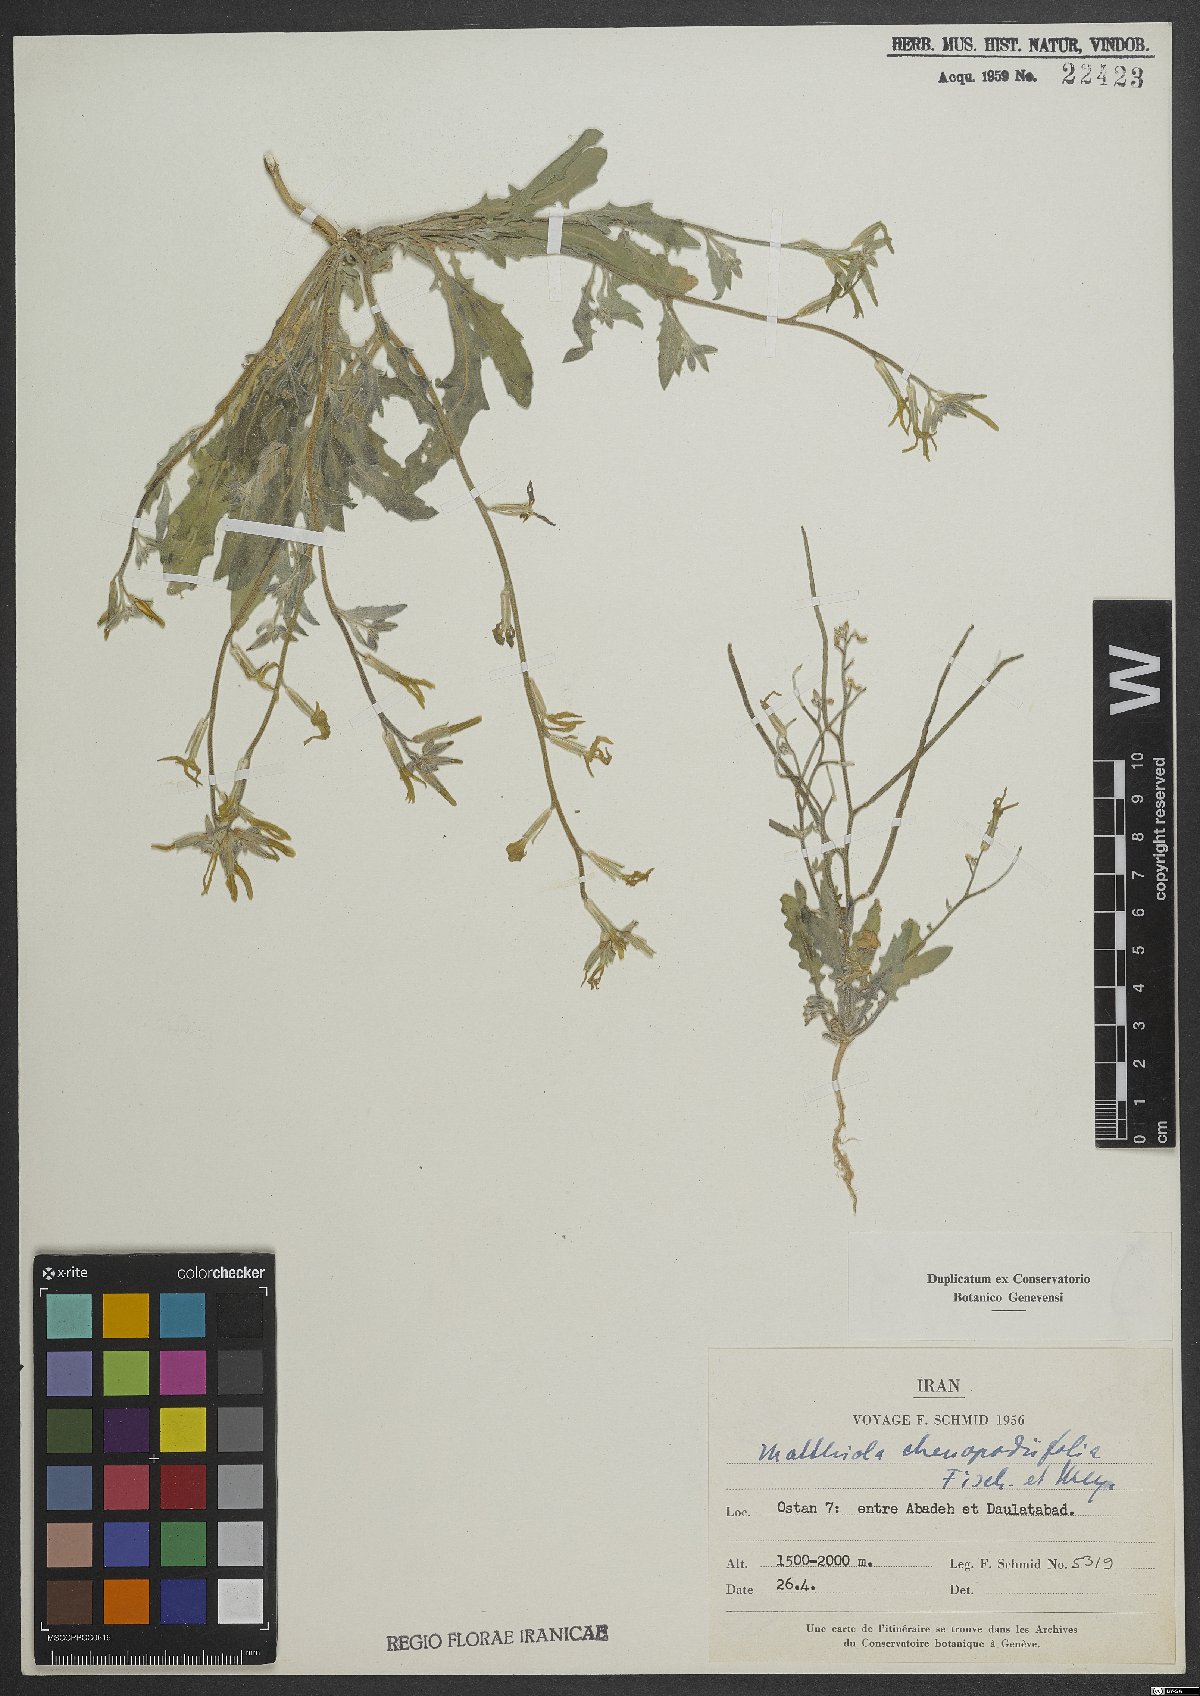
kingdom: Plantae
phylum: Tracheophyta
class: Magnoliopsida
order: Brassicales
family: Brassicaceae
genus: Matthiola
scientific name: Matthiola chenopodiifolia
